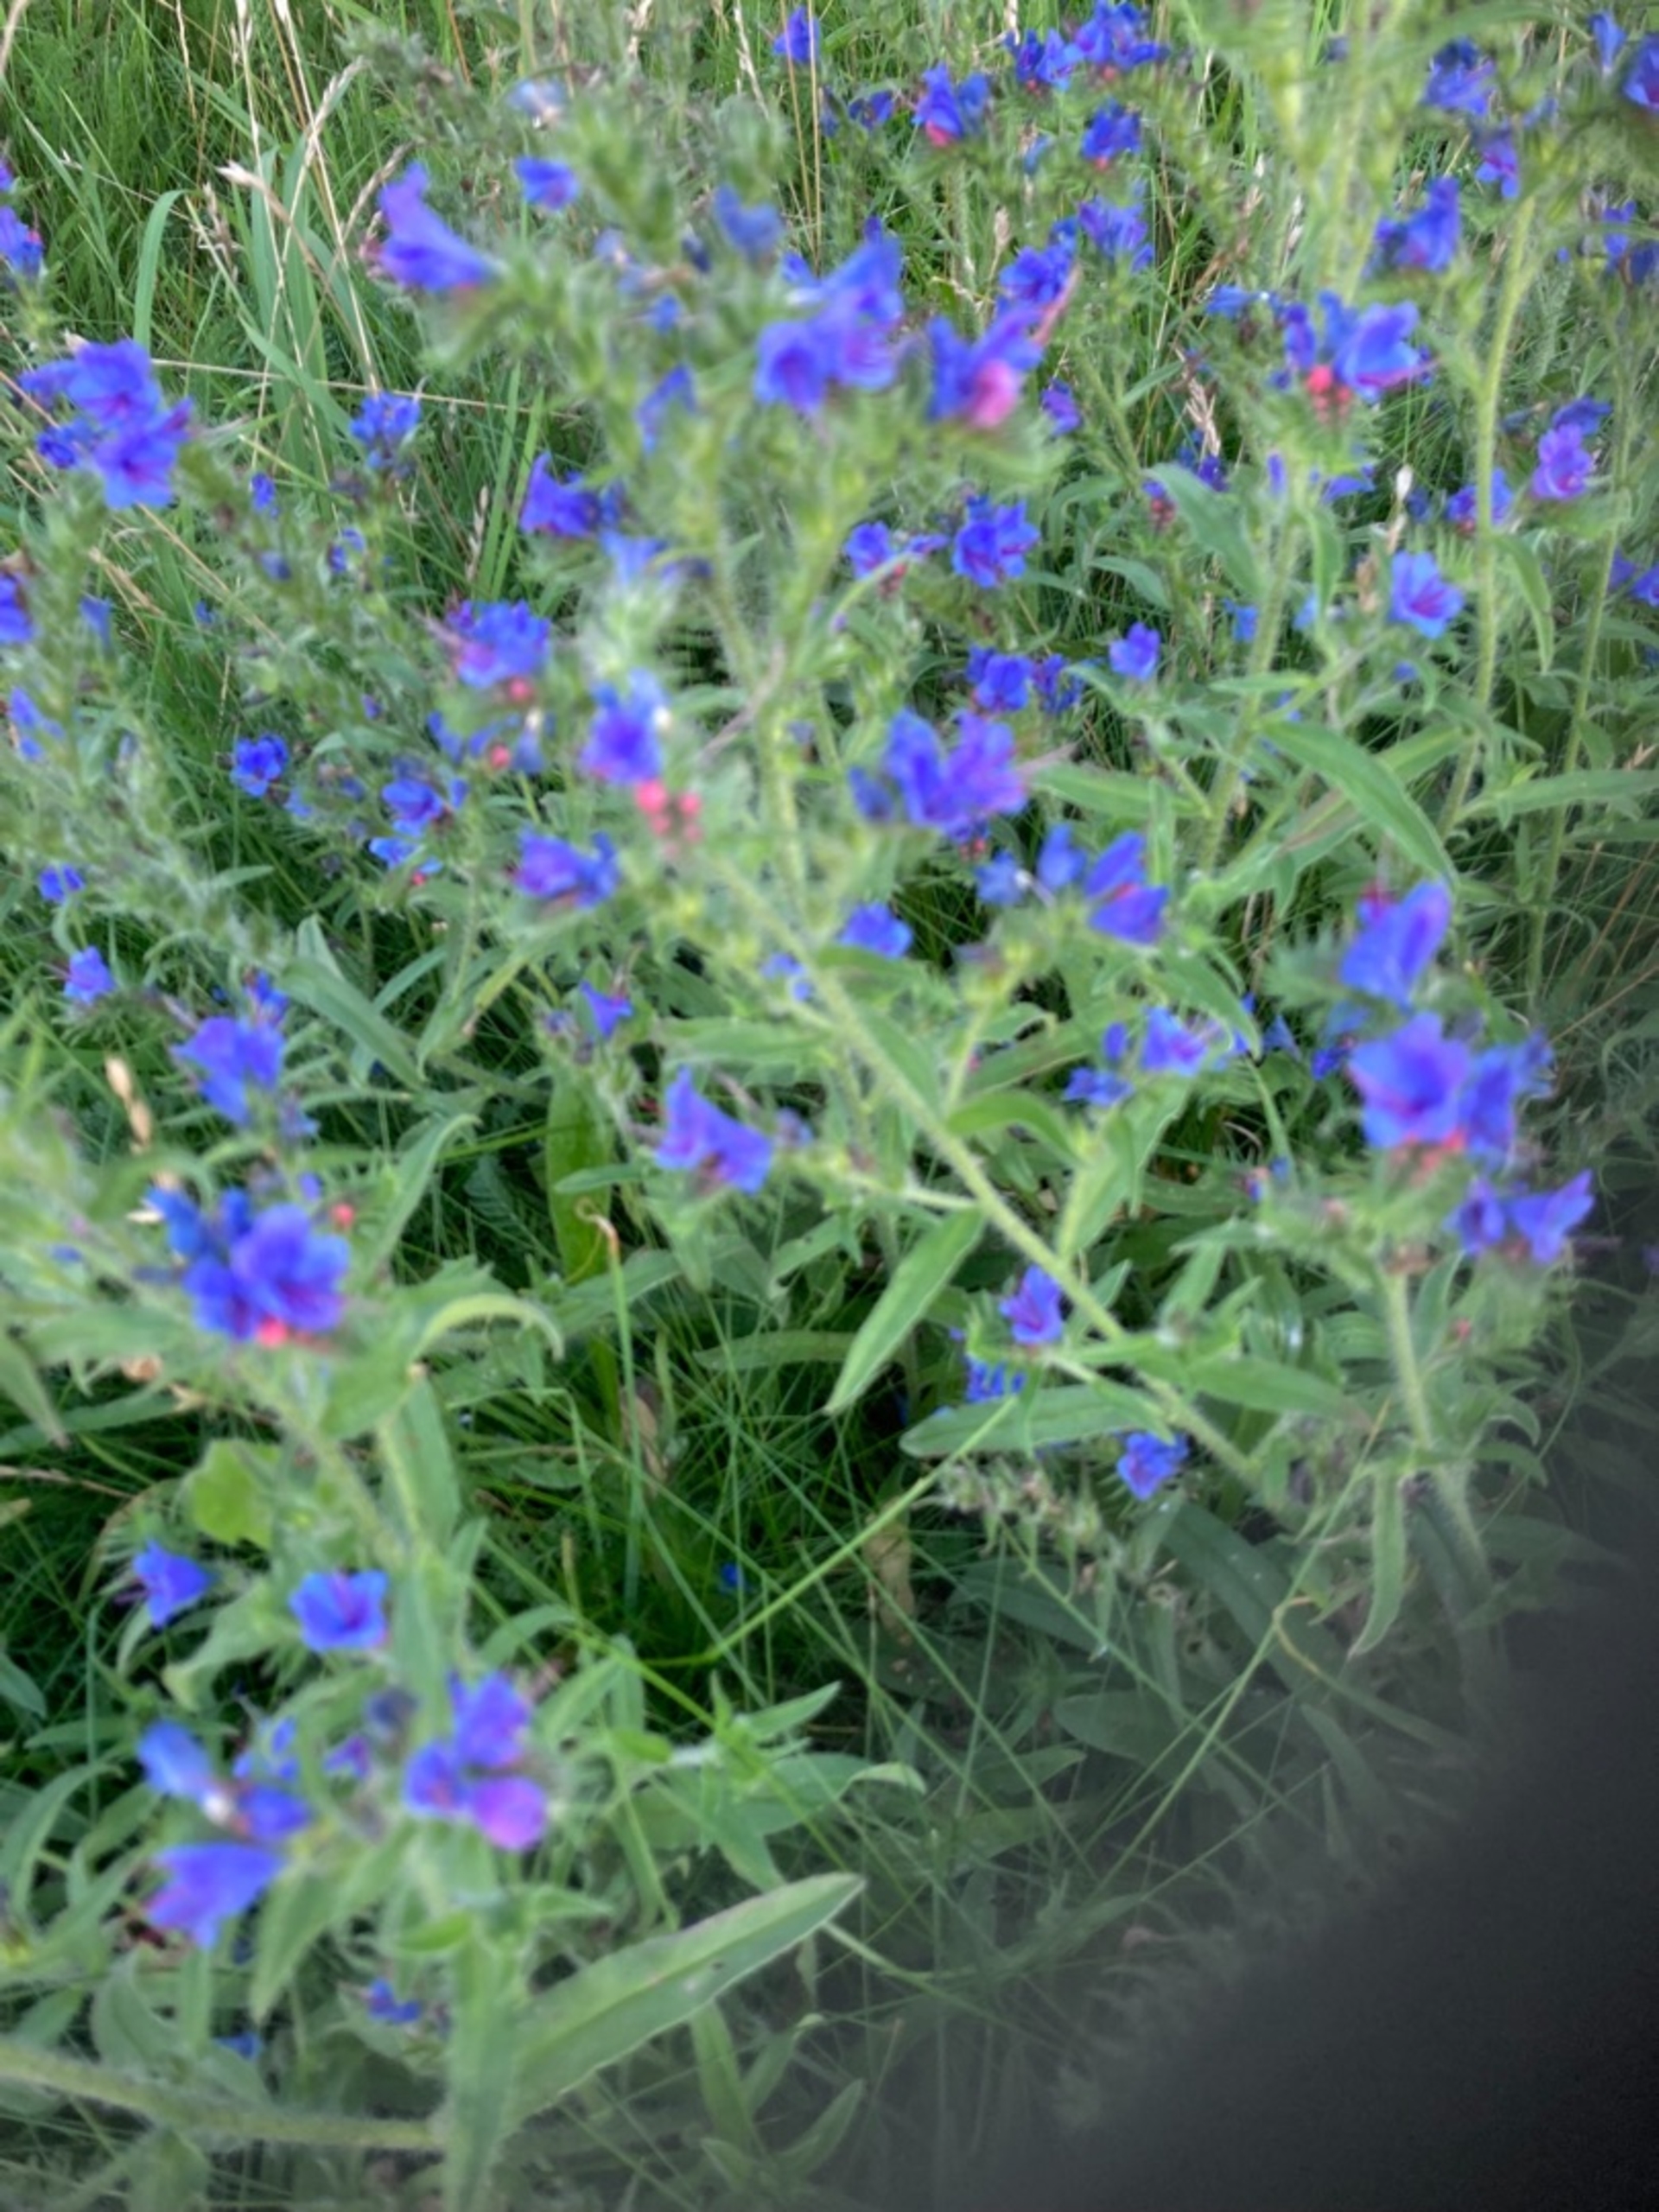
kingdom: Plantae
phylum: Tracheophyta
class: Magnoliopsida
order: Boraginales
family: Boraginaceae
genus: Echium
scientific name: Echium vulgare
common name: Slangehoved
